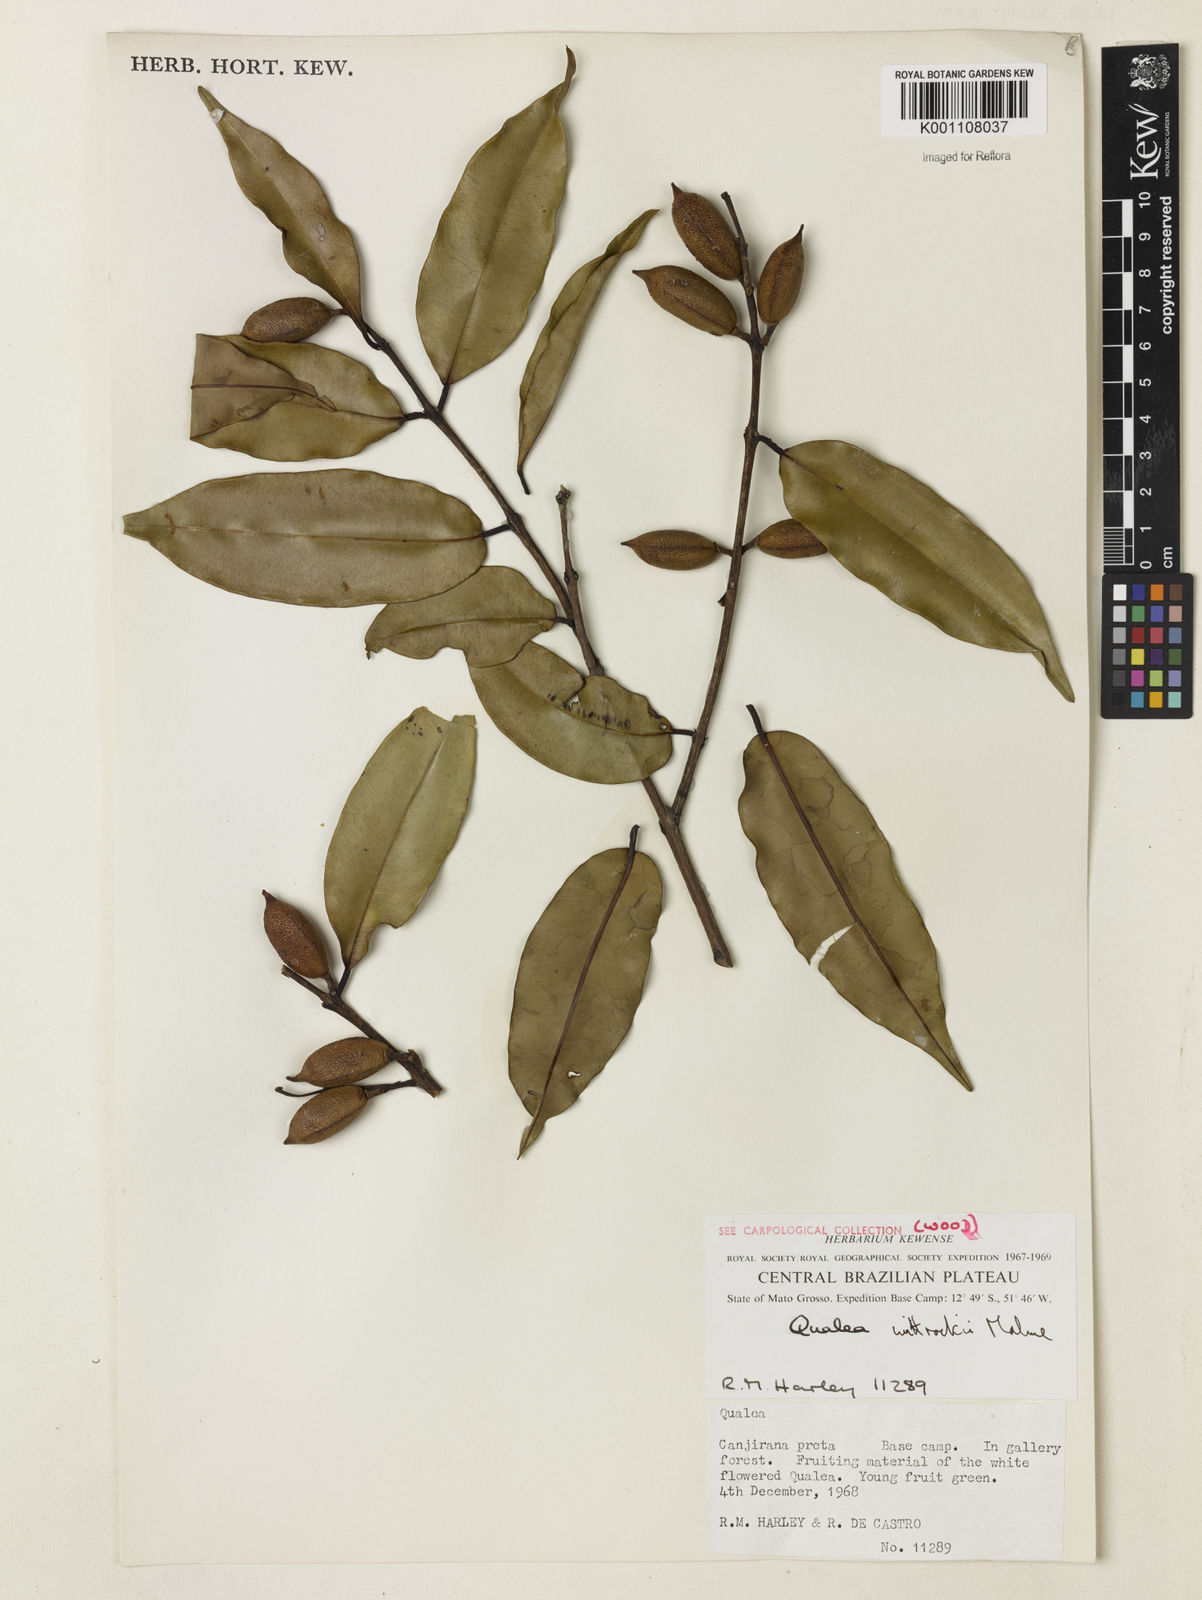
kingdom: Plantae
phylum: Tracheophyta
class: Magnoliopsida
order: Myrtales
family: Vochysiaceae
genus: Ruizterania
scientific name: Ruizterania wittrockii
